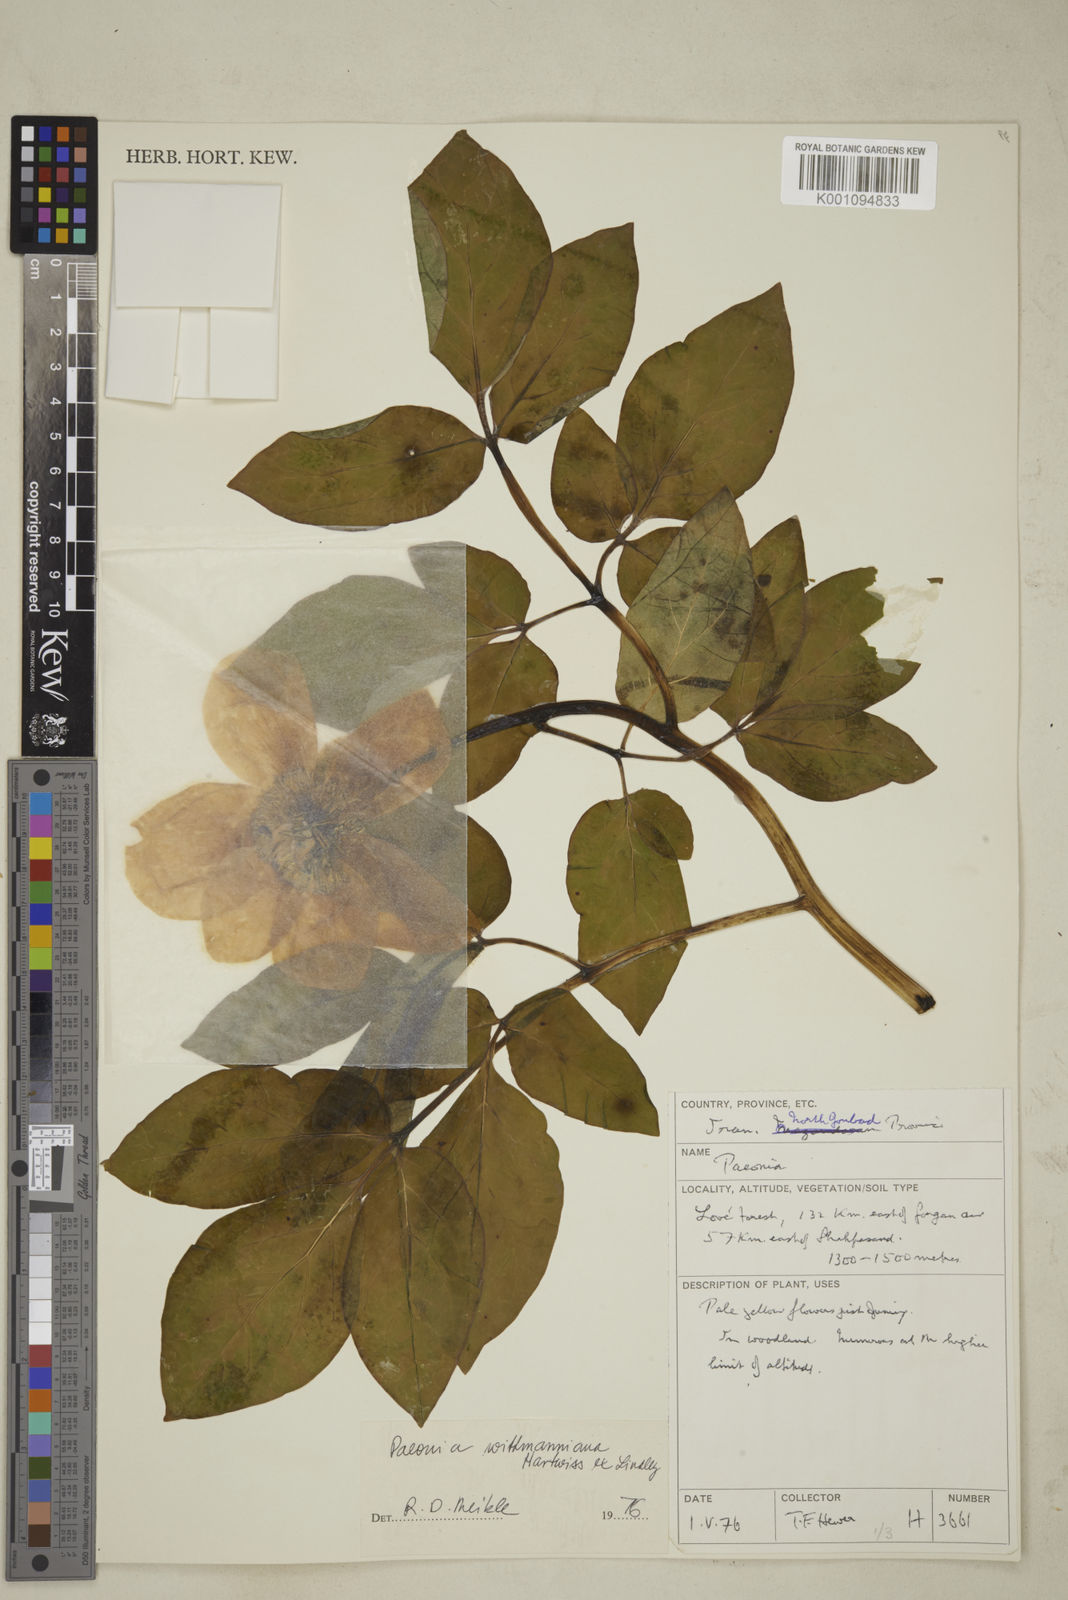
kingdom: Plantae
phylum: Tracheophyta
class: Magnoliopsida
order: Saxifragales
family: Paeoniaceae
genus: Paeonia
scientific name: Paeonia wittmanniana
